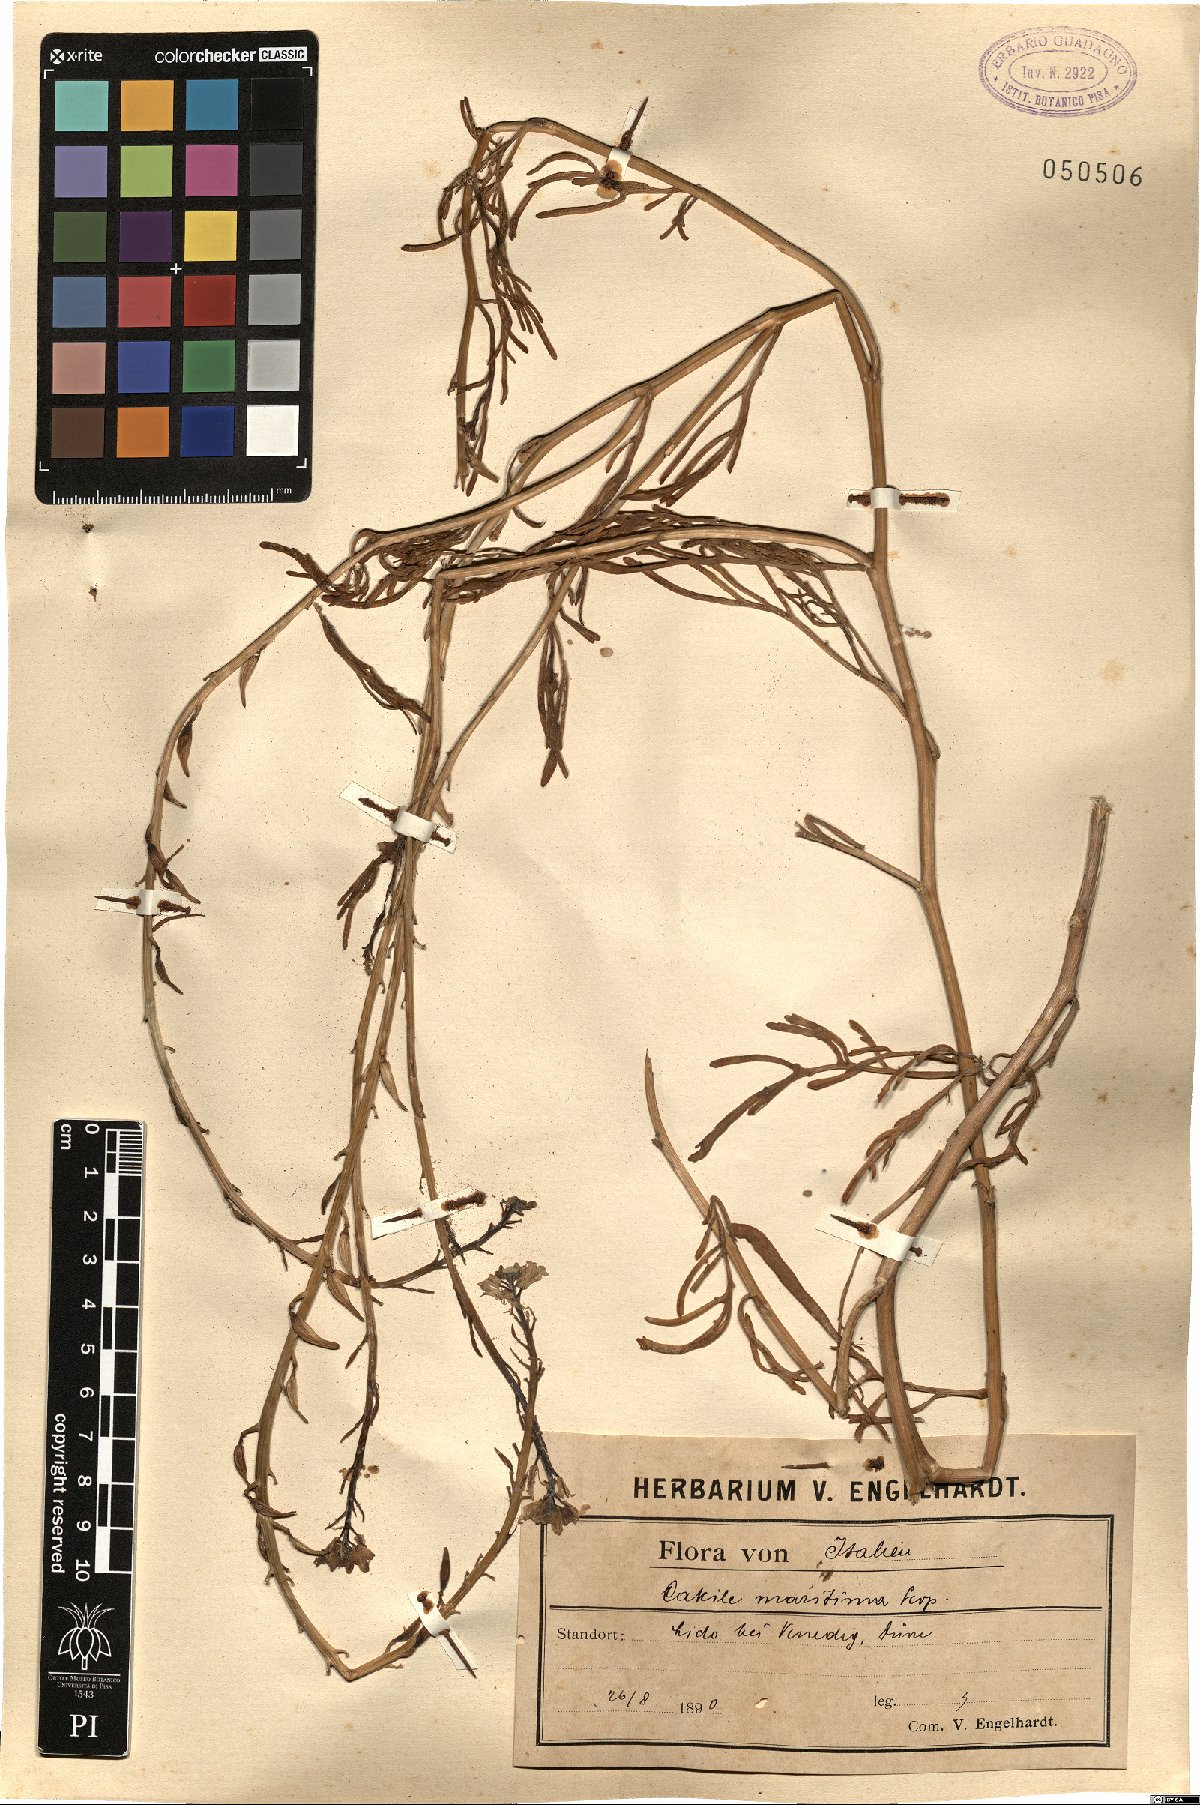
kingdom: Plantae
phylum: Tracheophyta
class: Magnoliopsida
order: Brassicales
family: Brassicaceae
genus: Cakile
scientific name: Cakile maritima
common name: Sea rocket
